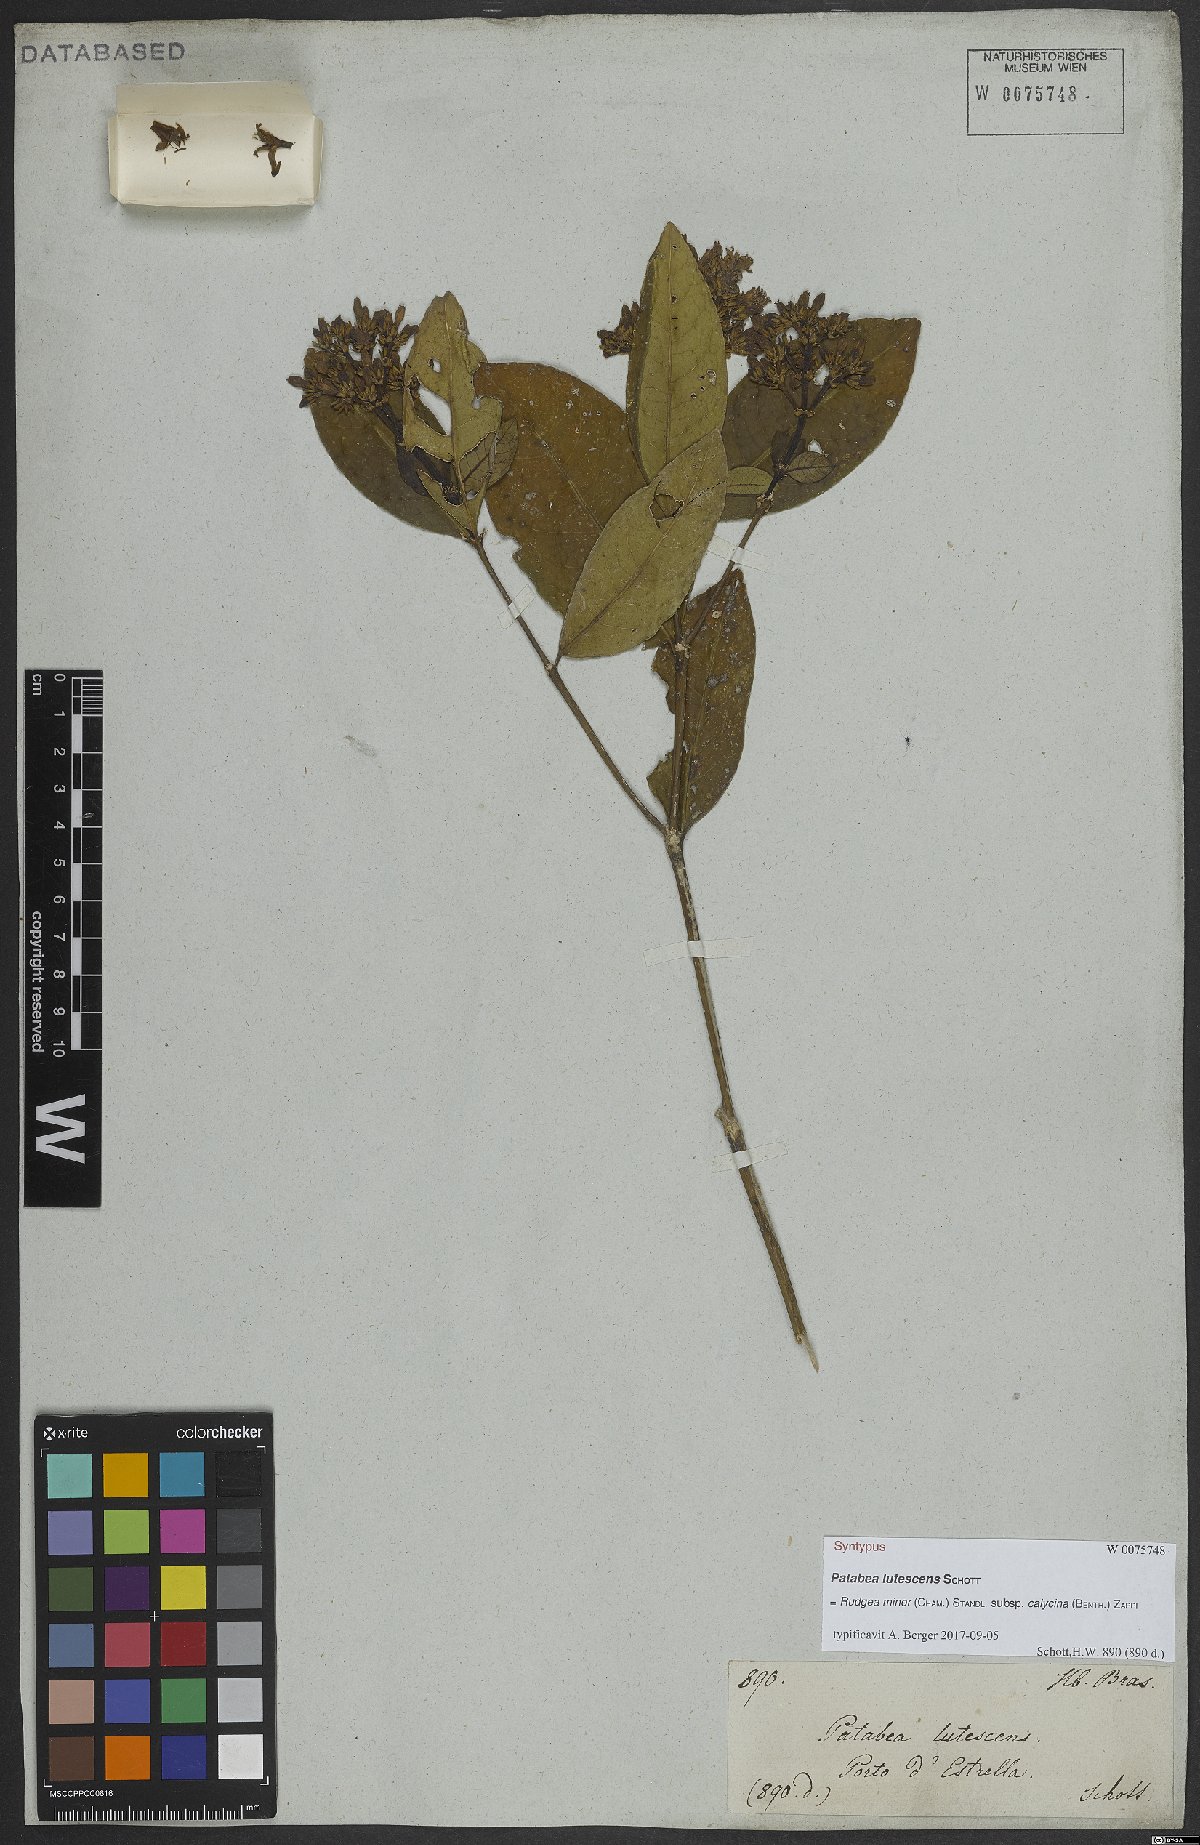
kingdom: Plantae
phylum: Tracheophyta
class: Magnoliopsida
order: Gentianales
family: Rubiaceae
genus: Rudgea
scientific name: Rudgea minor
